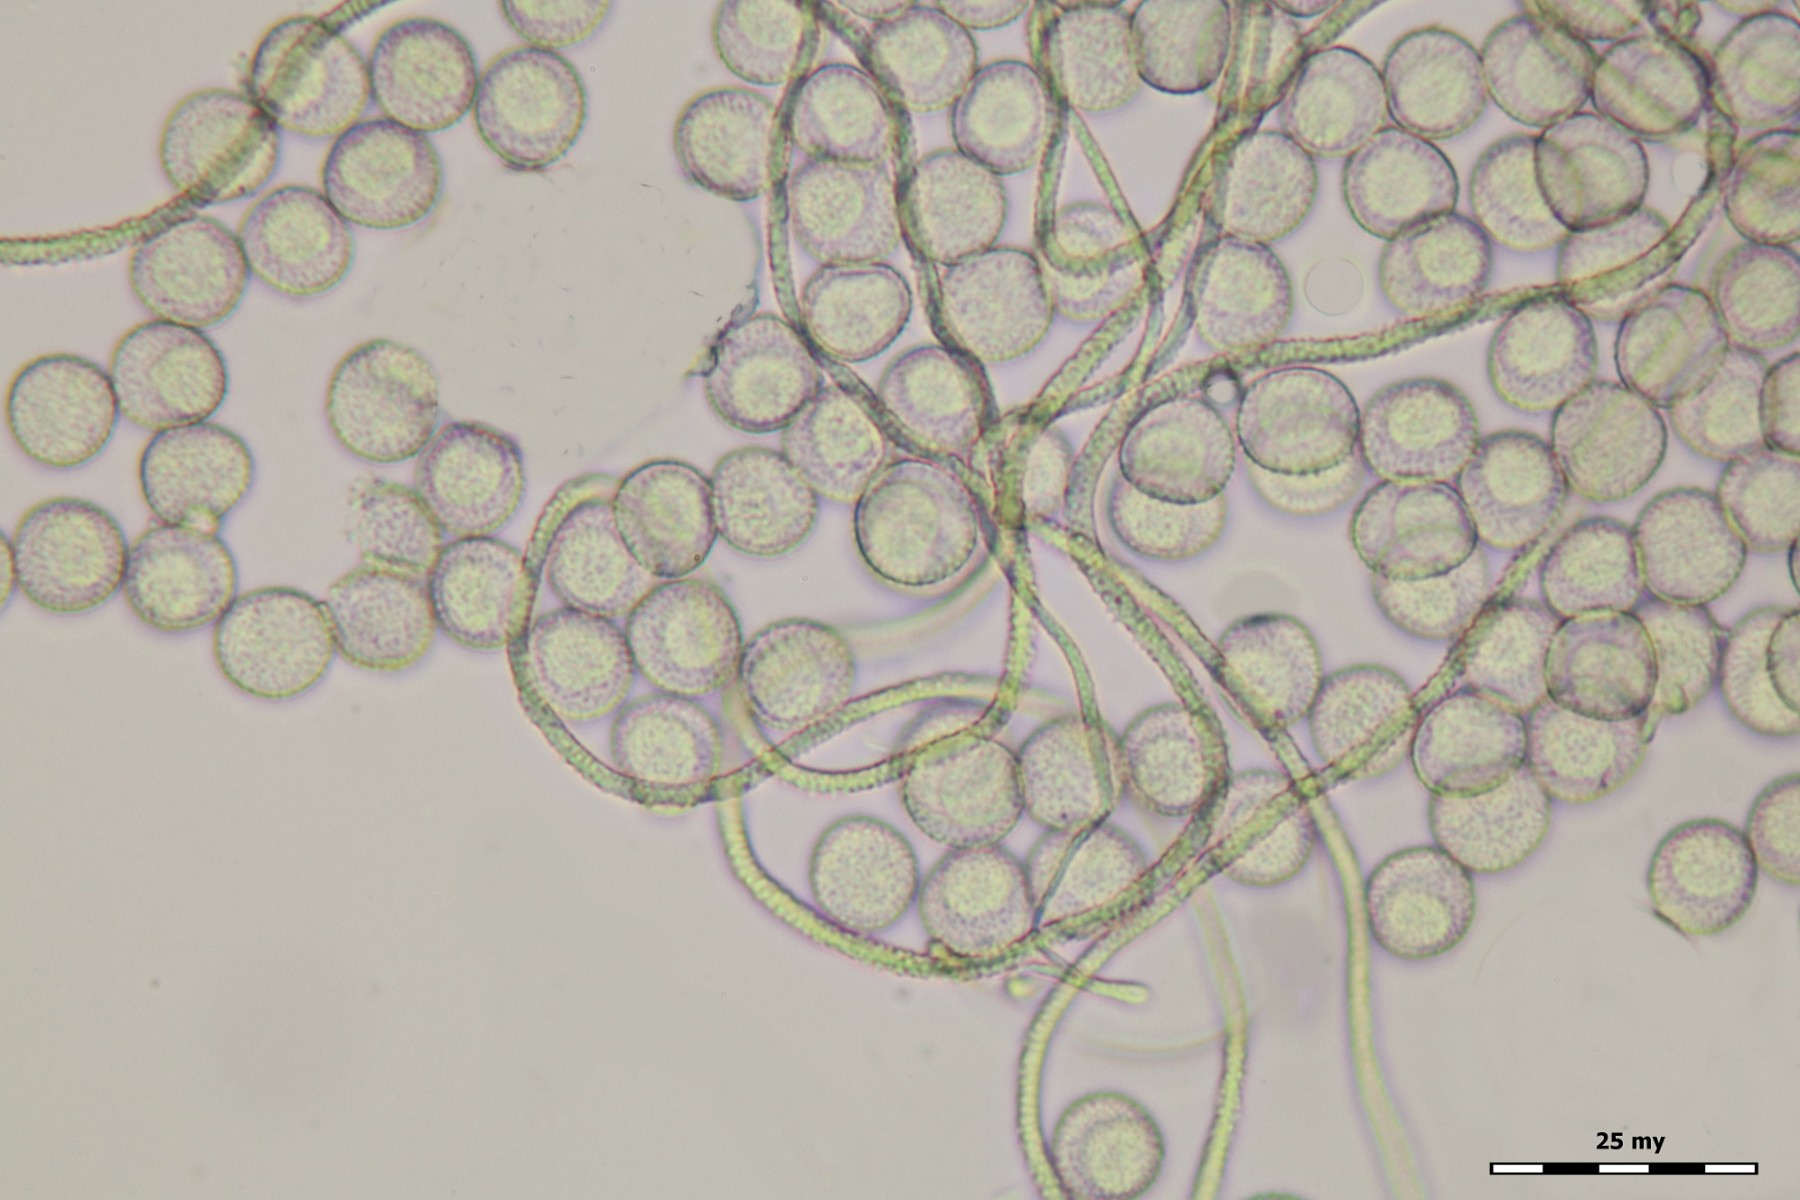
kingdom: Protozoa
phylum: Mycetozoa
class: Myxomycetes
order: Trichiales
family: Dianemataceae
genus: Calomyxa
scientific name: Calomyxa metallica
